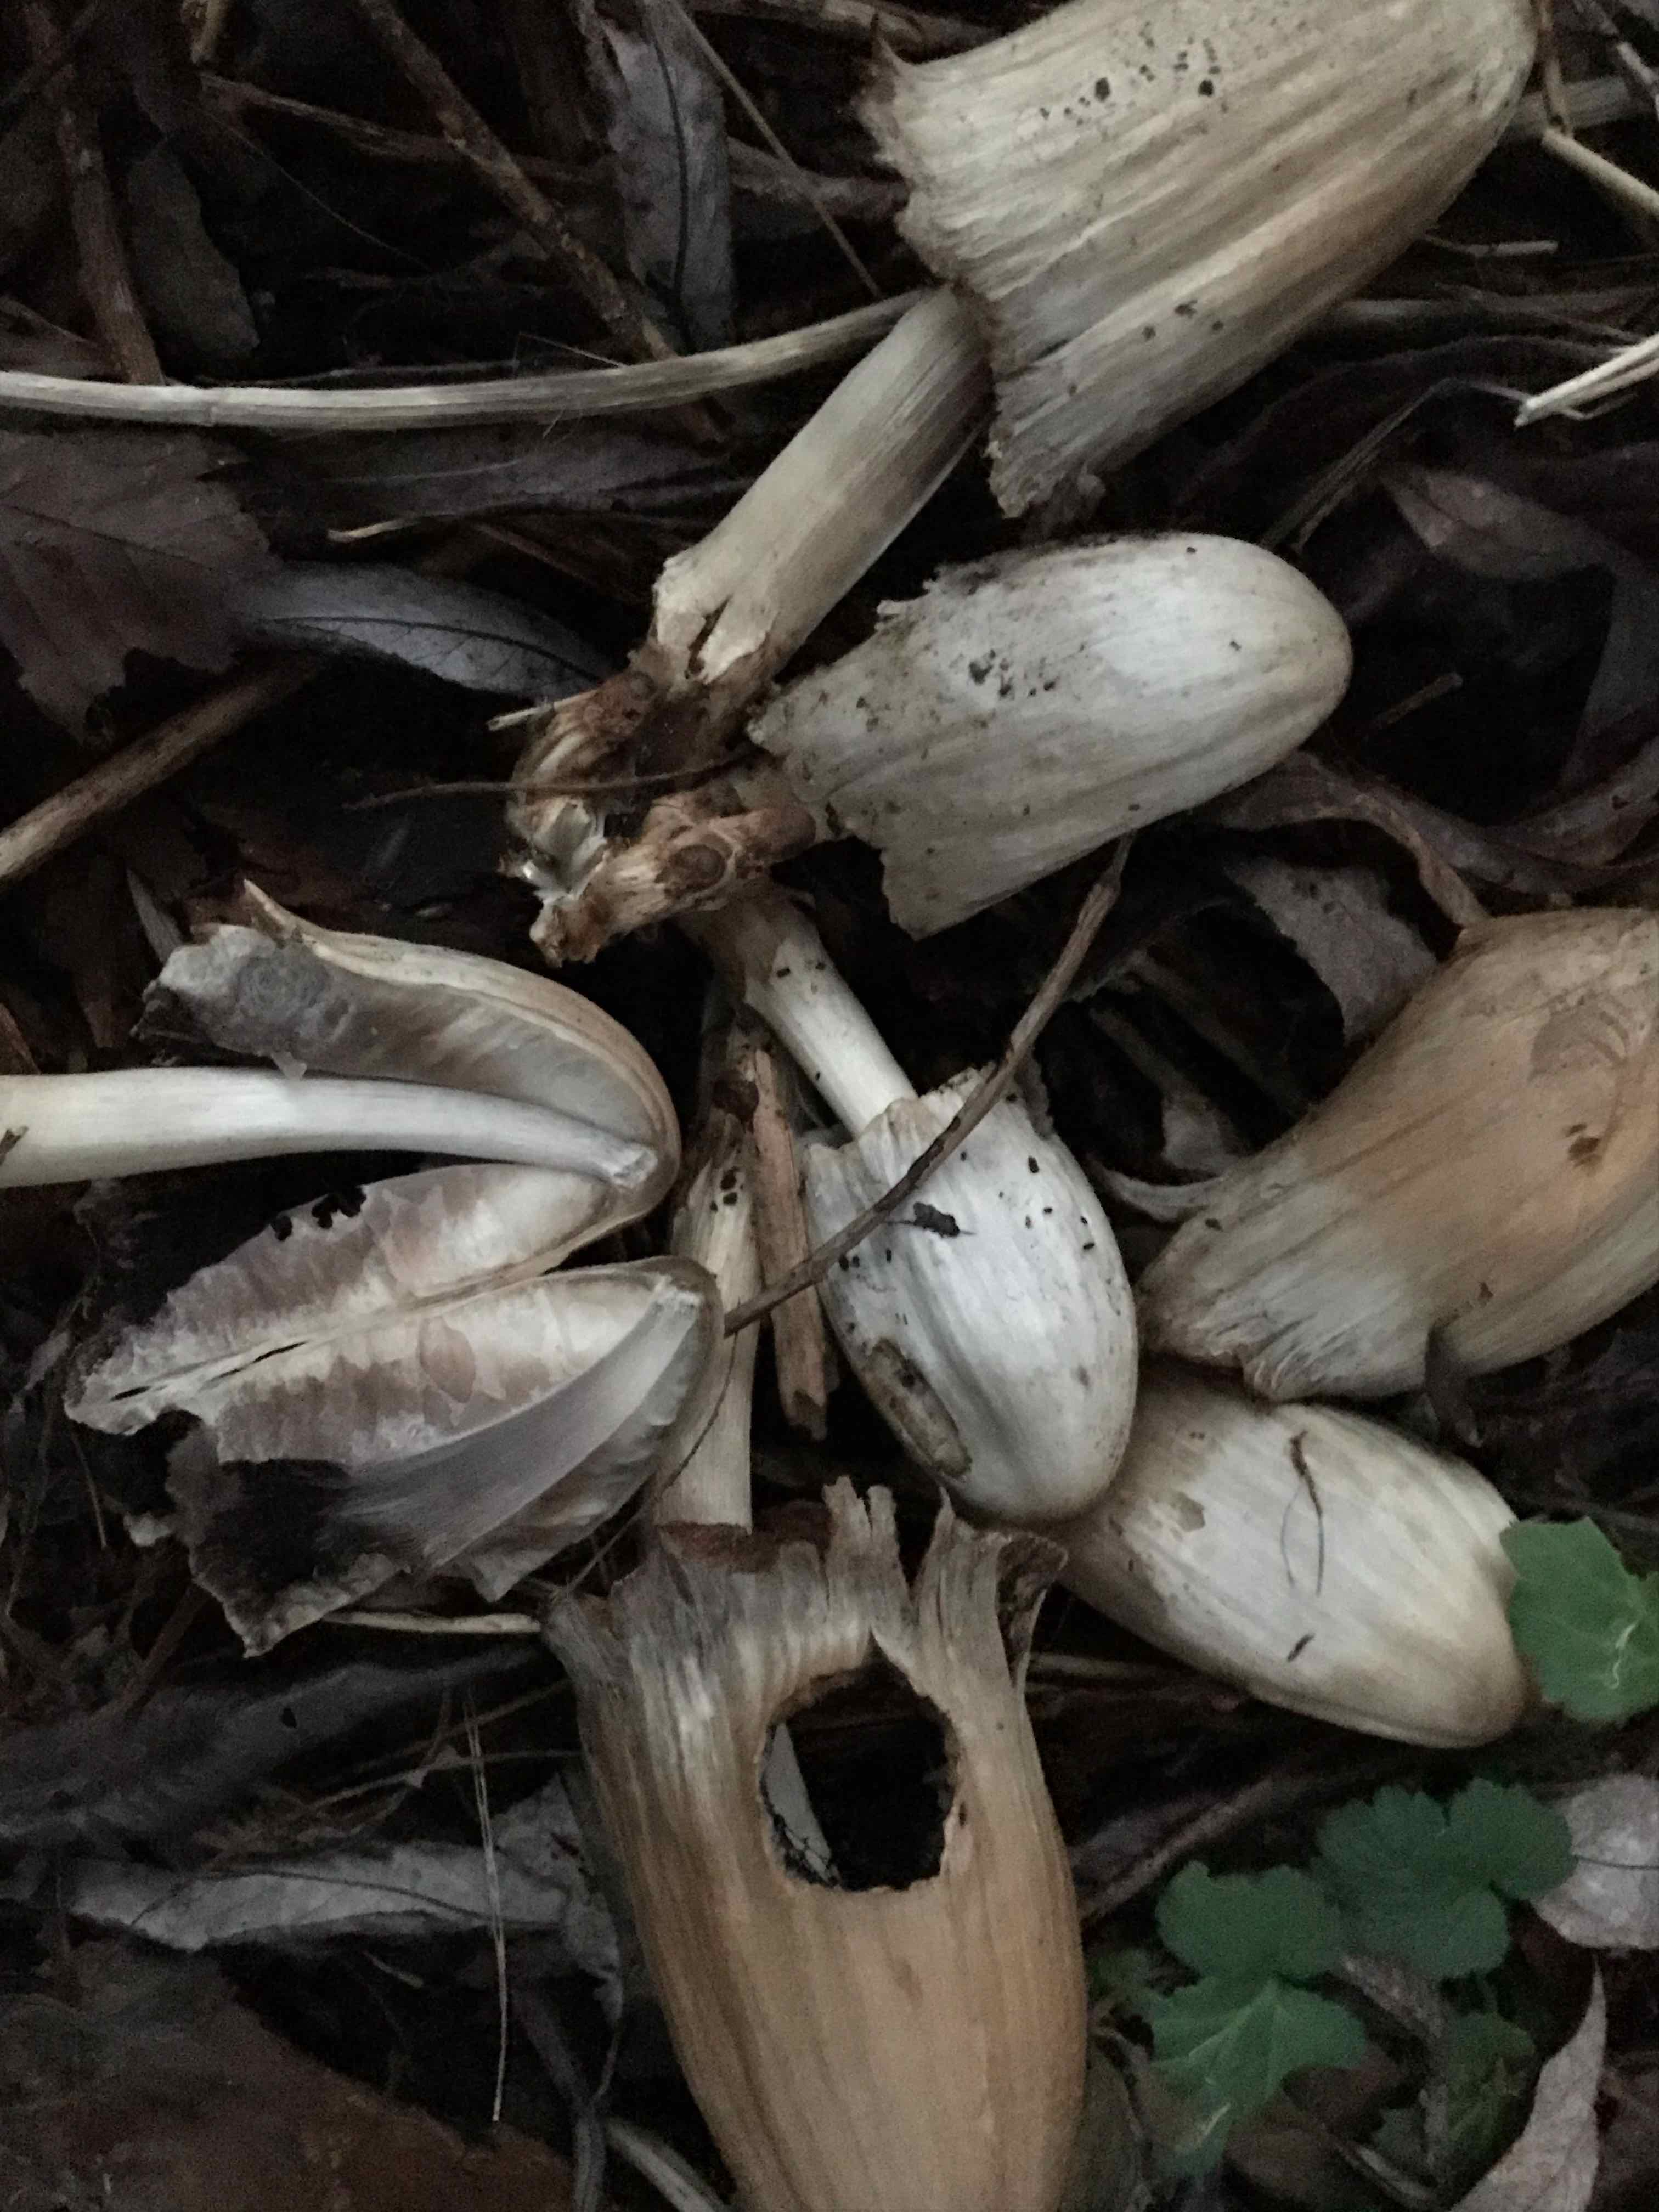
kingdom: Fungi
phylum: Basidiomycota
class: Agaricomycetes
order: Agaricales
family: Psathyrellaceae
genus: Coprinopsis
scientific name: Coprinopsis atramentaria
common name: almindelig blækhat
